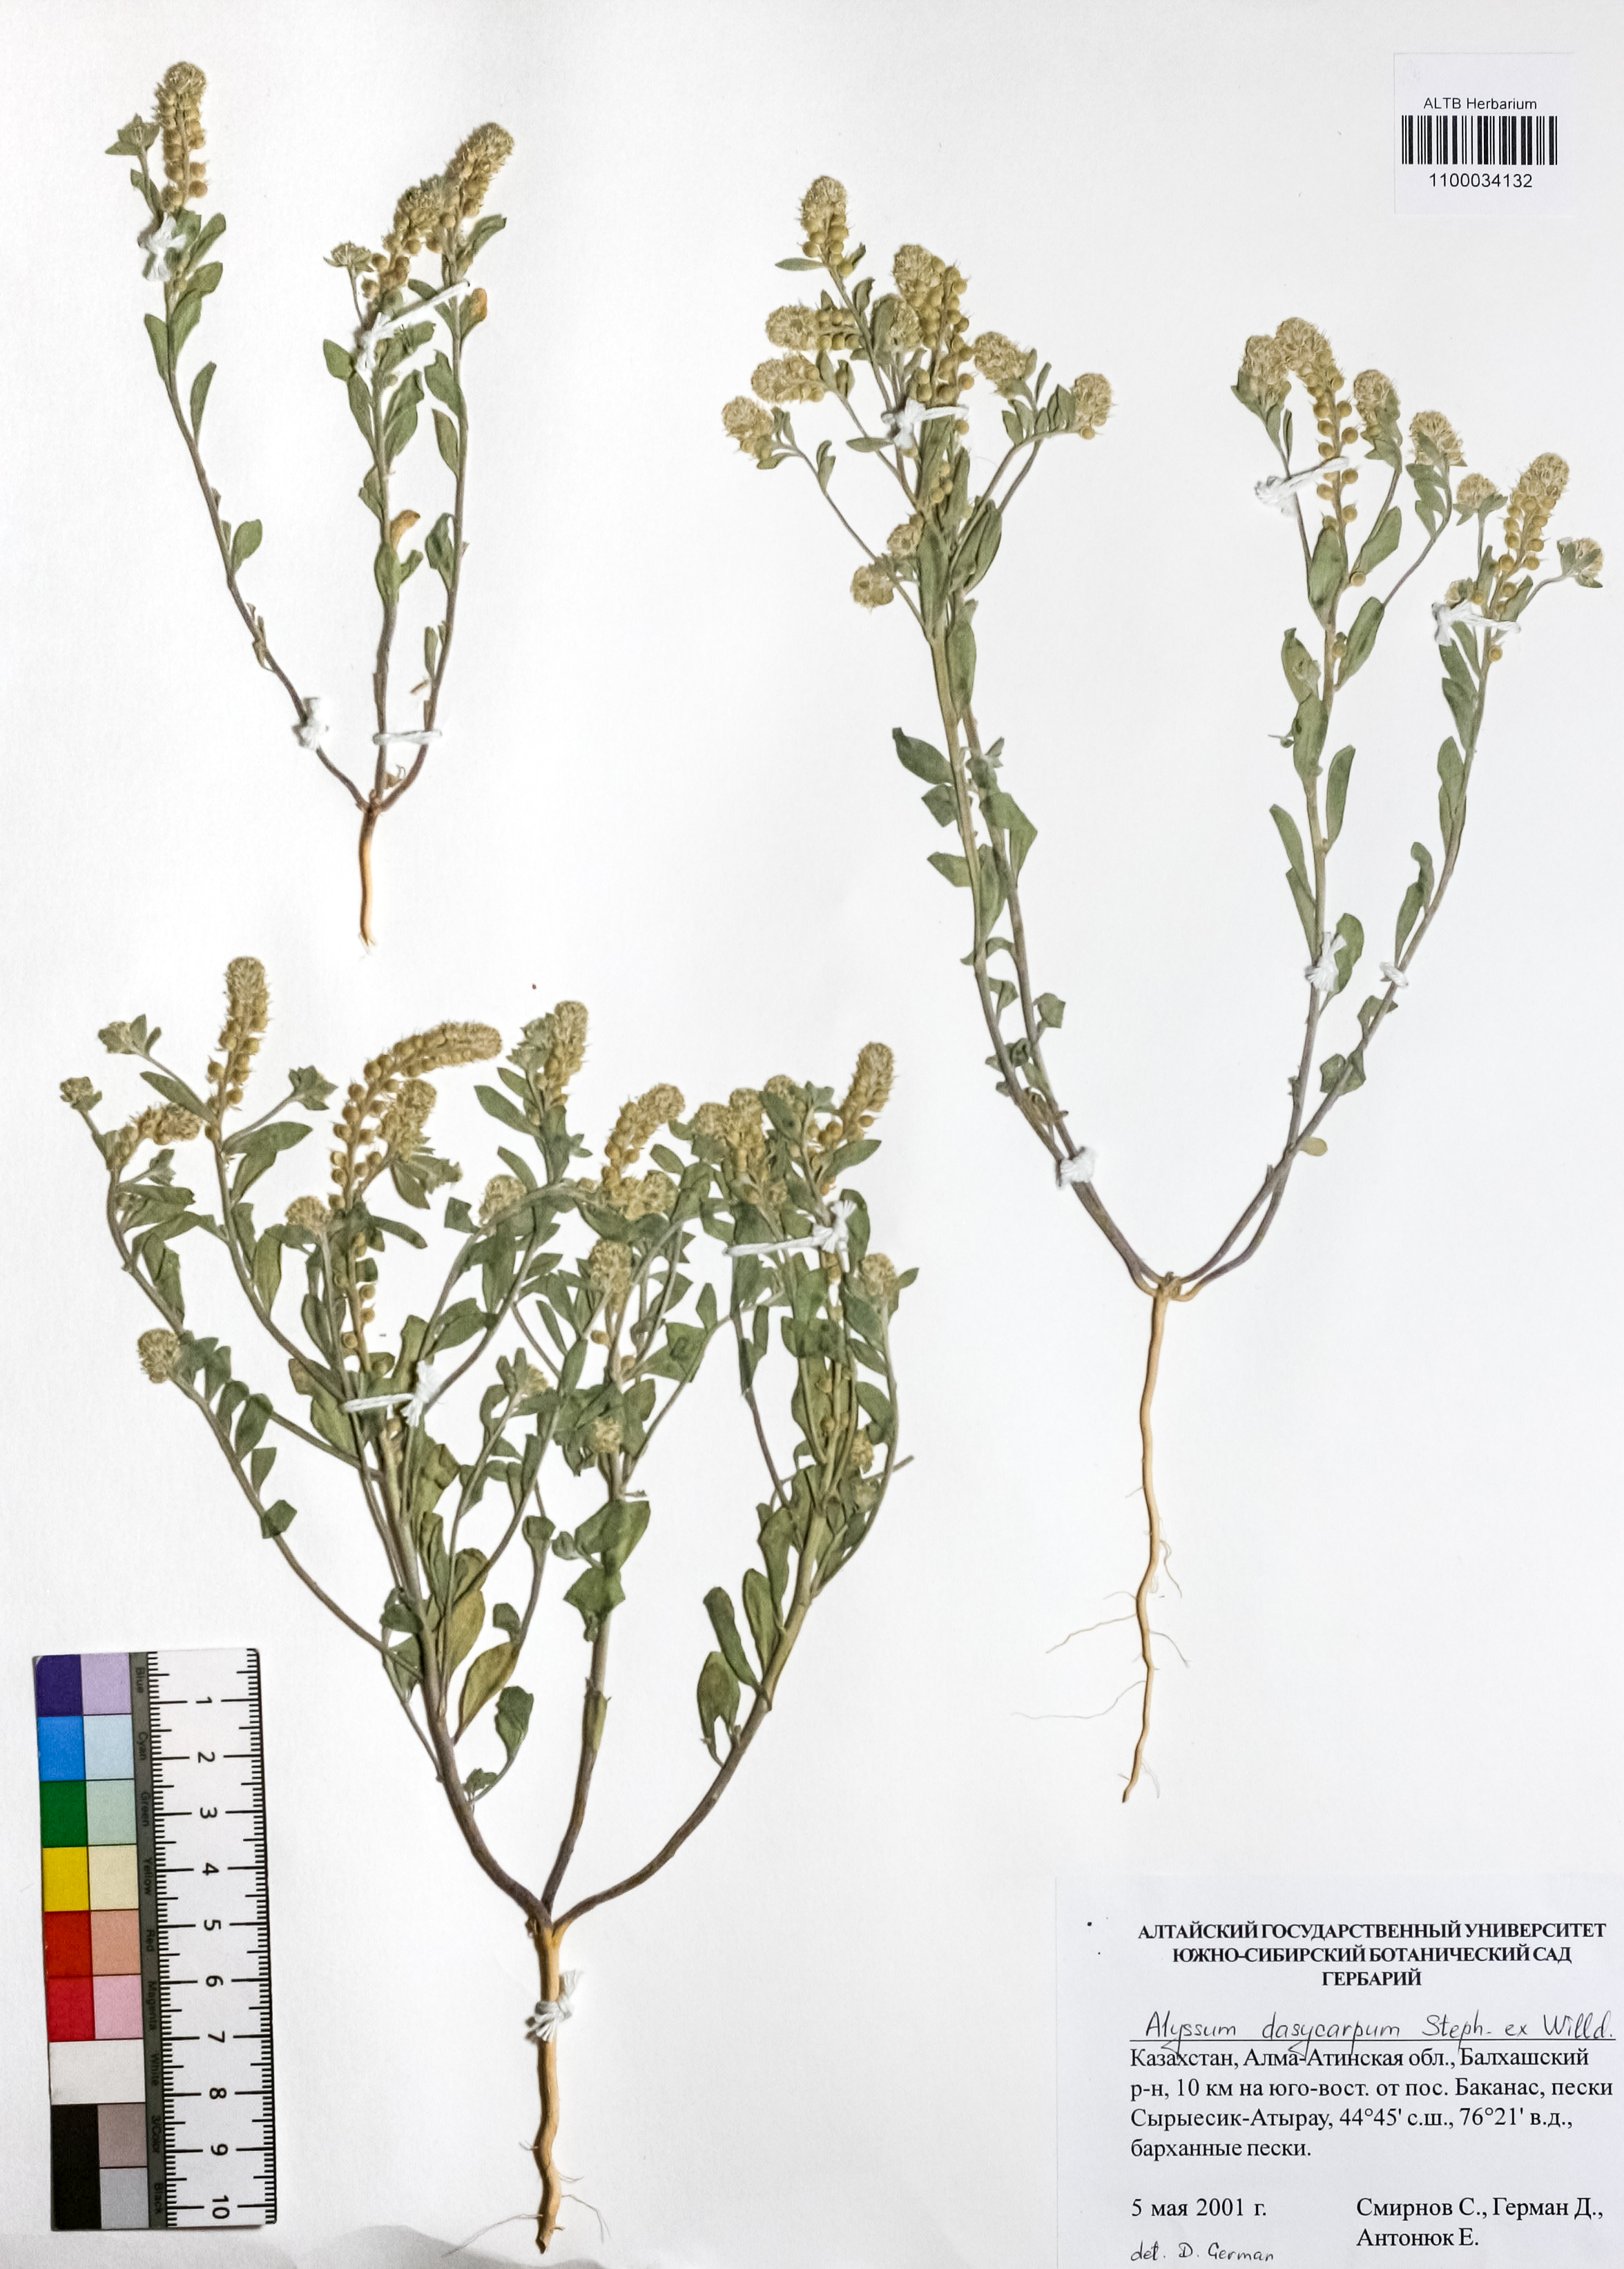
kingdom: Plantae
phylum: Tracheophyta
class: Magnoliopsida
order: Brassicales
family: Brassicaceae
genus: Alyssum
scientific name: Alyssum dasycarpum
